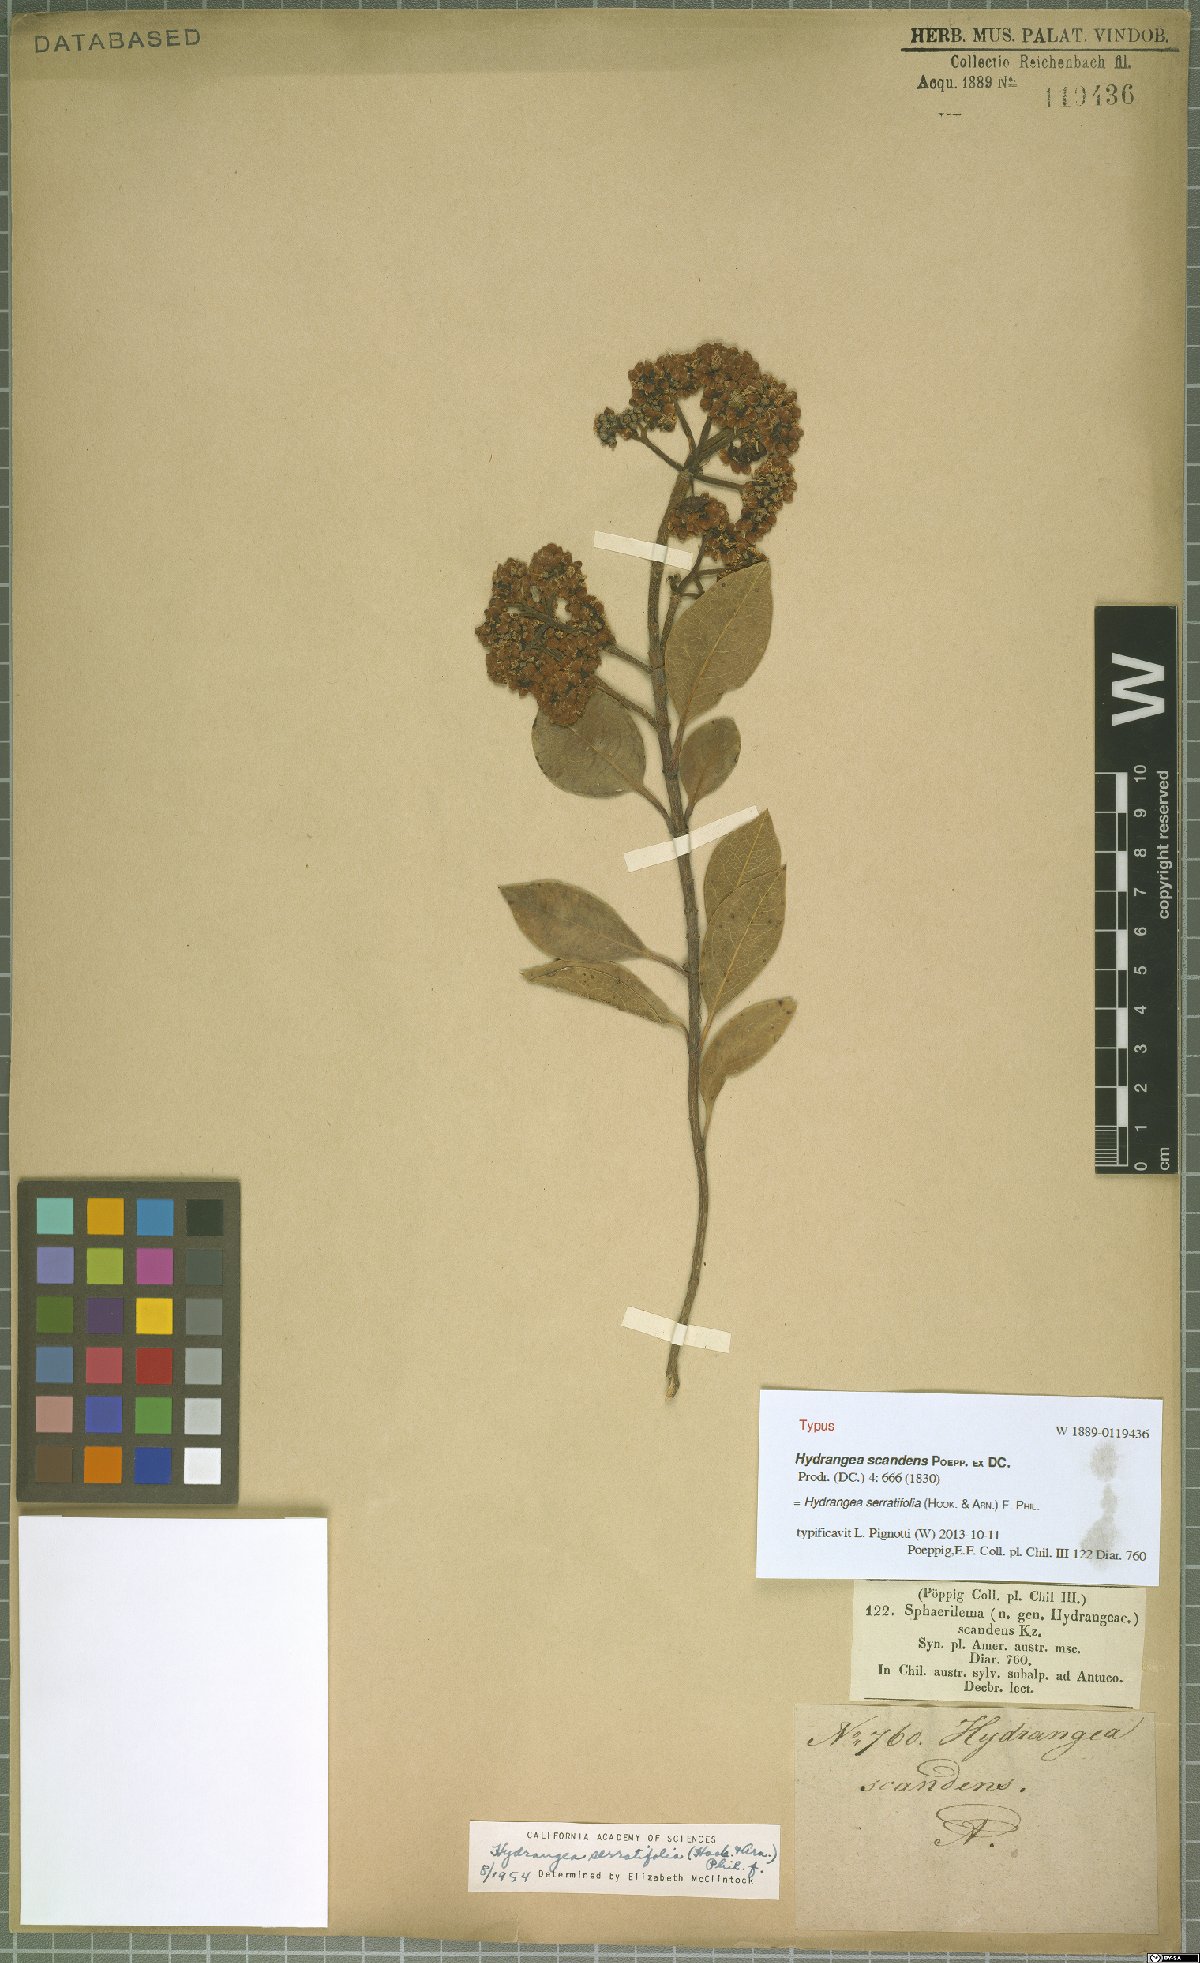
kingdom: Plantae
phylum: Tracheophyta
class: Magnoliopsida
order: Cornales
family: Hydrangeaceae
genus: Hydrangea
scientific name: Hydrangea serratifolia
